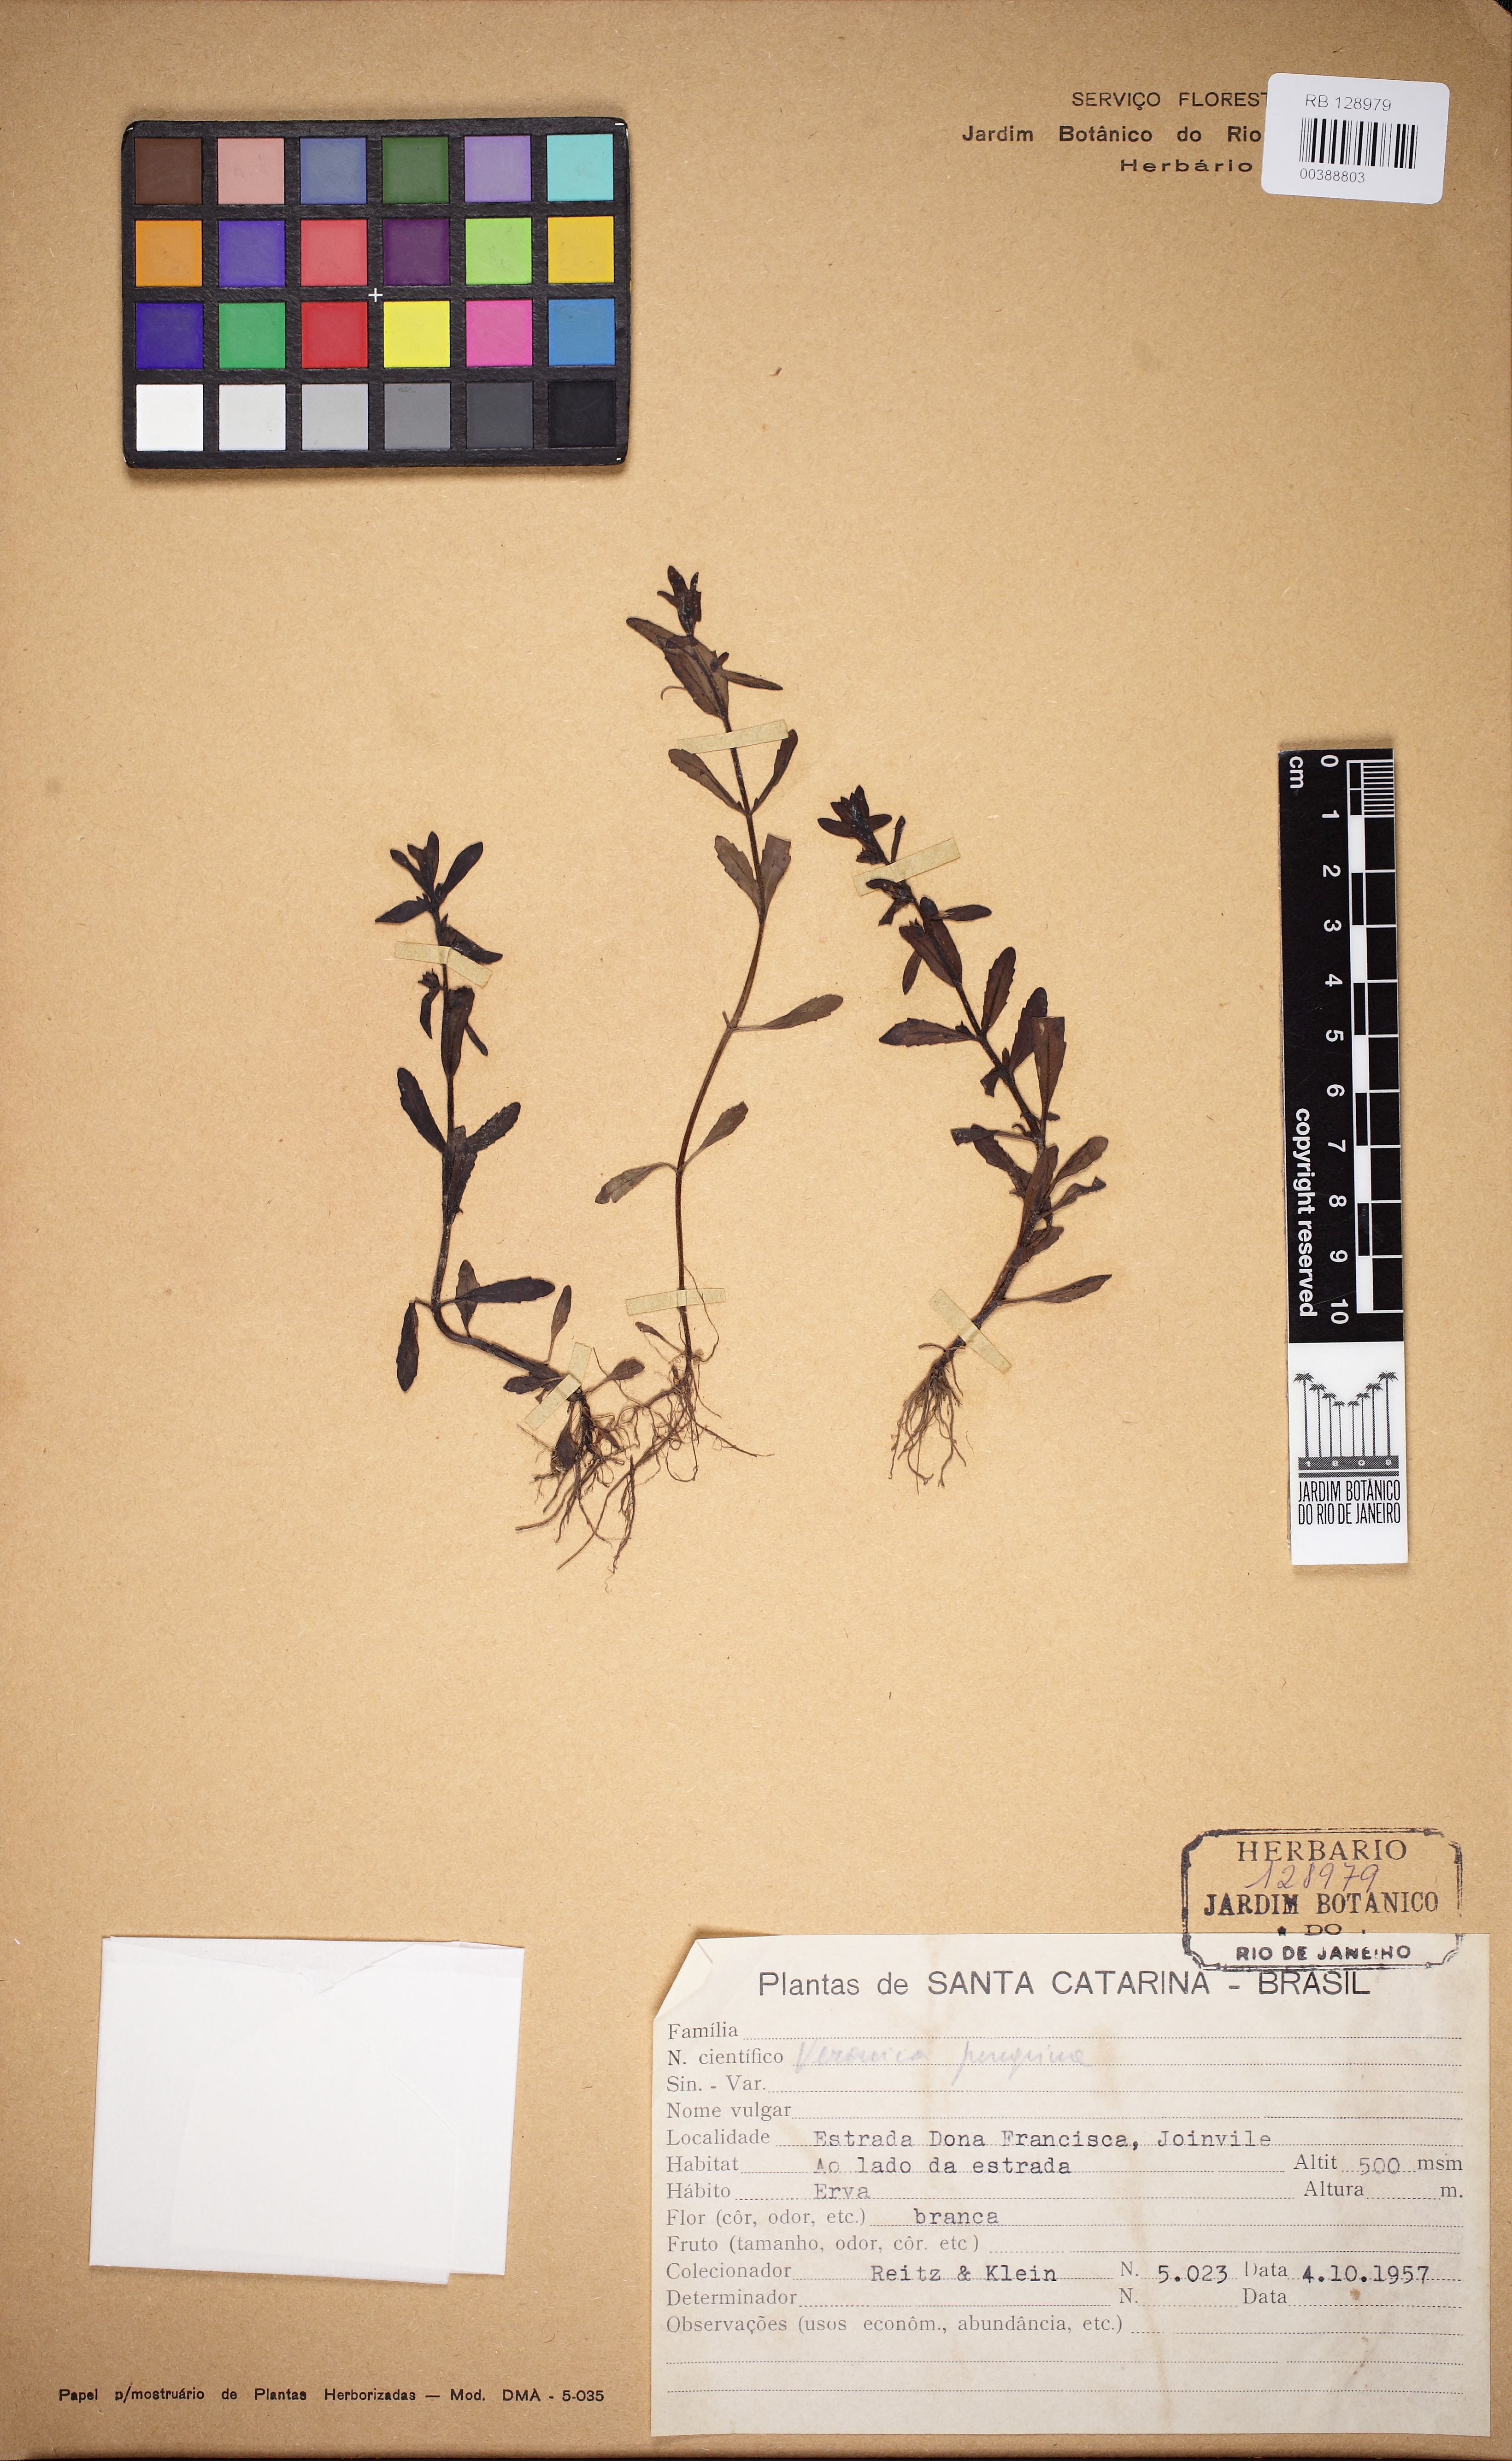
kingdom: Plantae
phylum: Tracheophyta
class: Magnoliopsida
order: Lamiales
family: Plantaginaceae
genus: Veronica
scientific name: Veronica peregrina
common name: Neckweed
